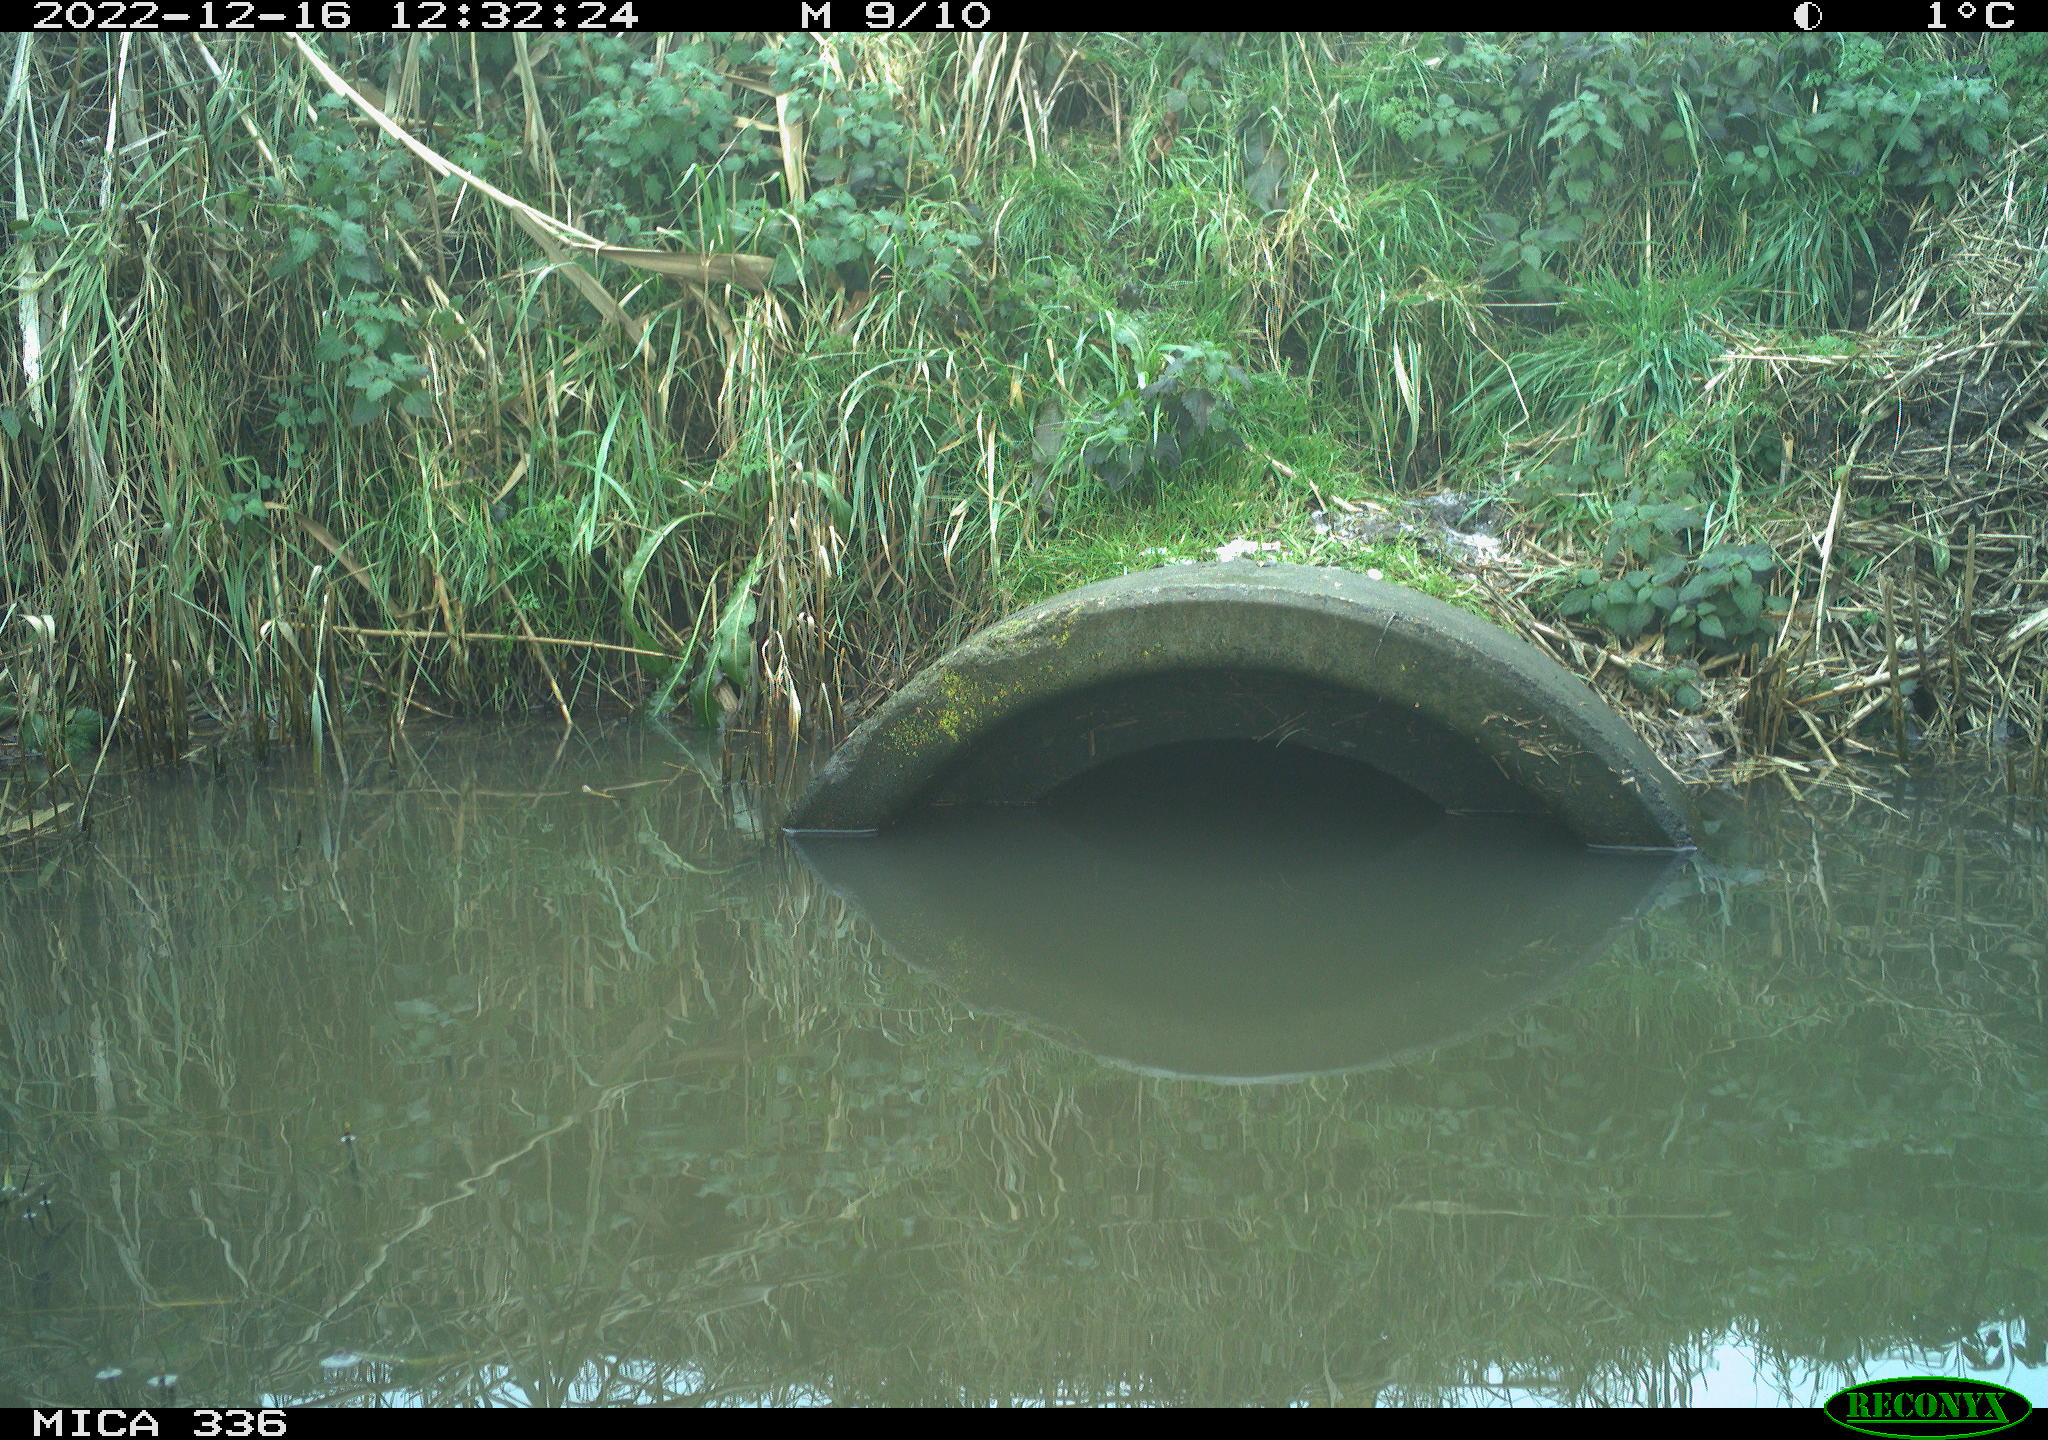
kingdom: Animalia
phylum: Chordata
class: Aves
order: Coraciiformes
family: Alcedinidae
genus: Alcedo
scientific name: Alcedo atthis
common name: Common kingfisher
